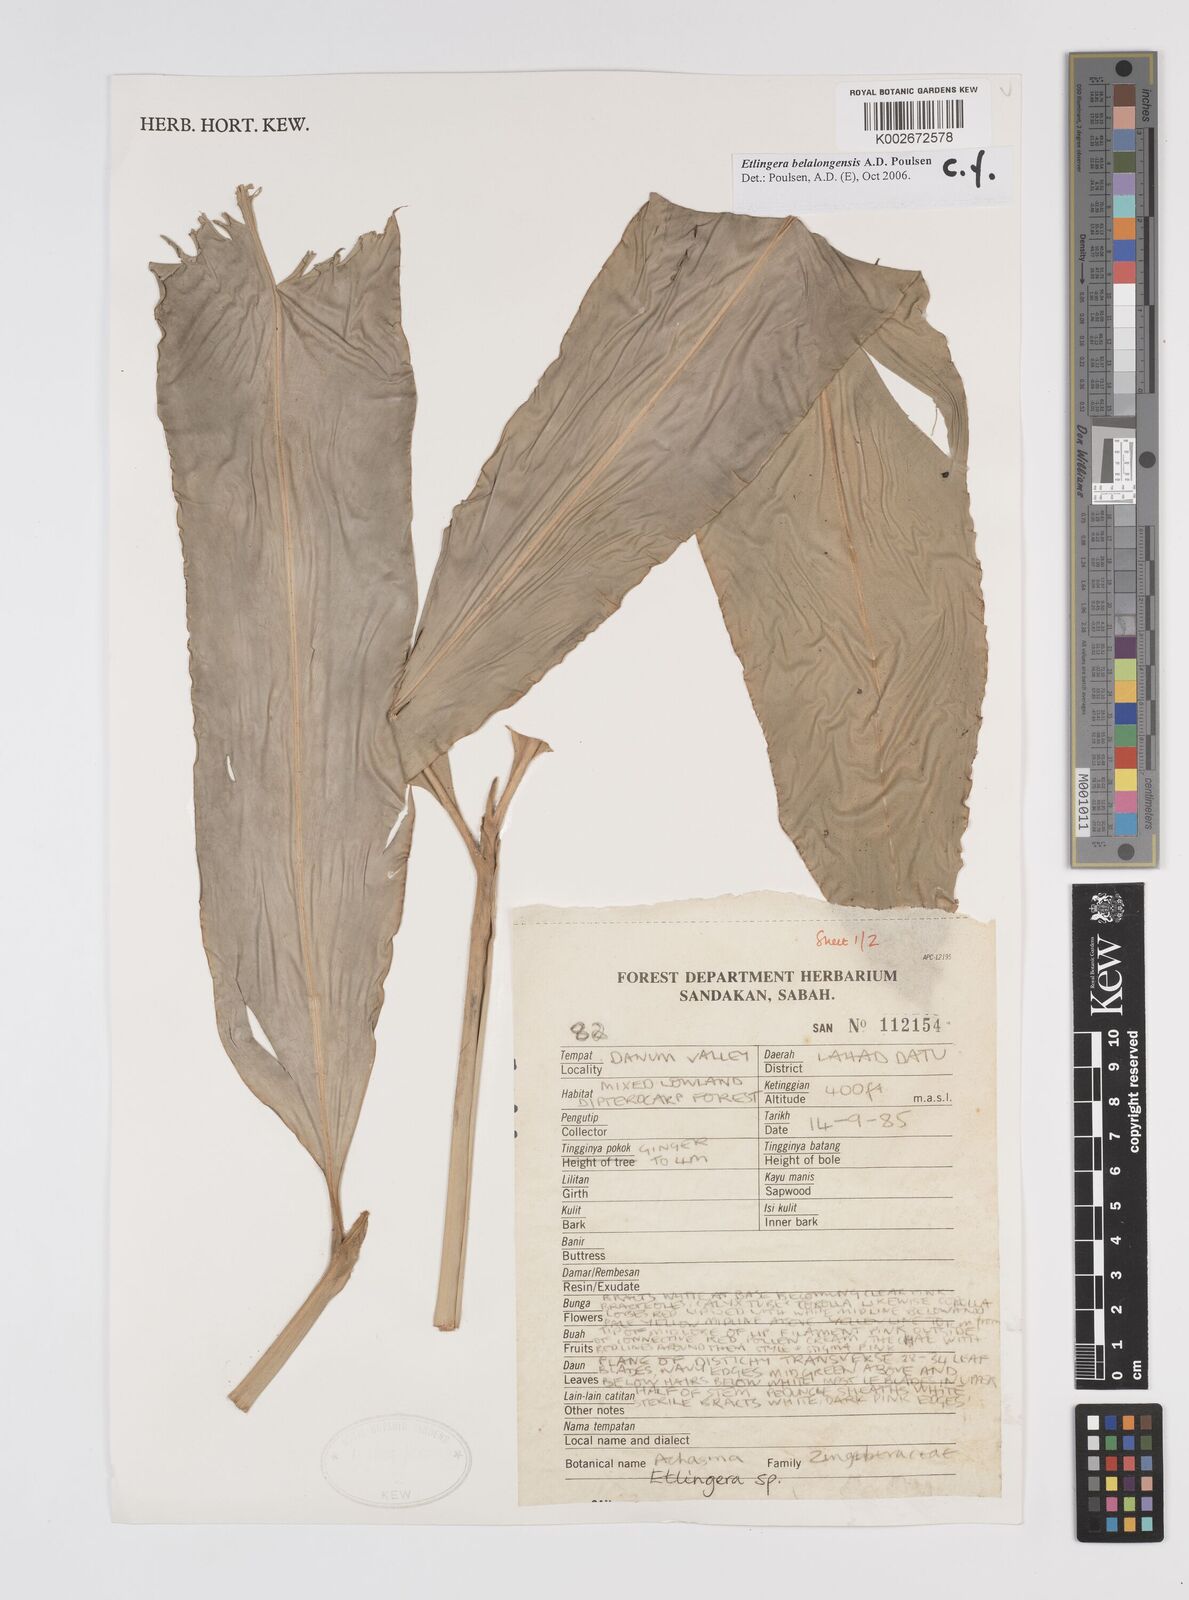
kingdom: Plantae
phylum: Tracheophyta
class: Liliopsida
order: Zingiberales
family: Zingiberaceae
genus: Etlingera
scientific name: Etlingera belalongensis
